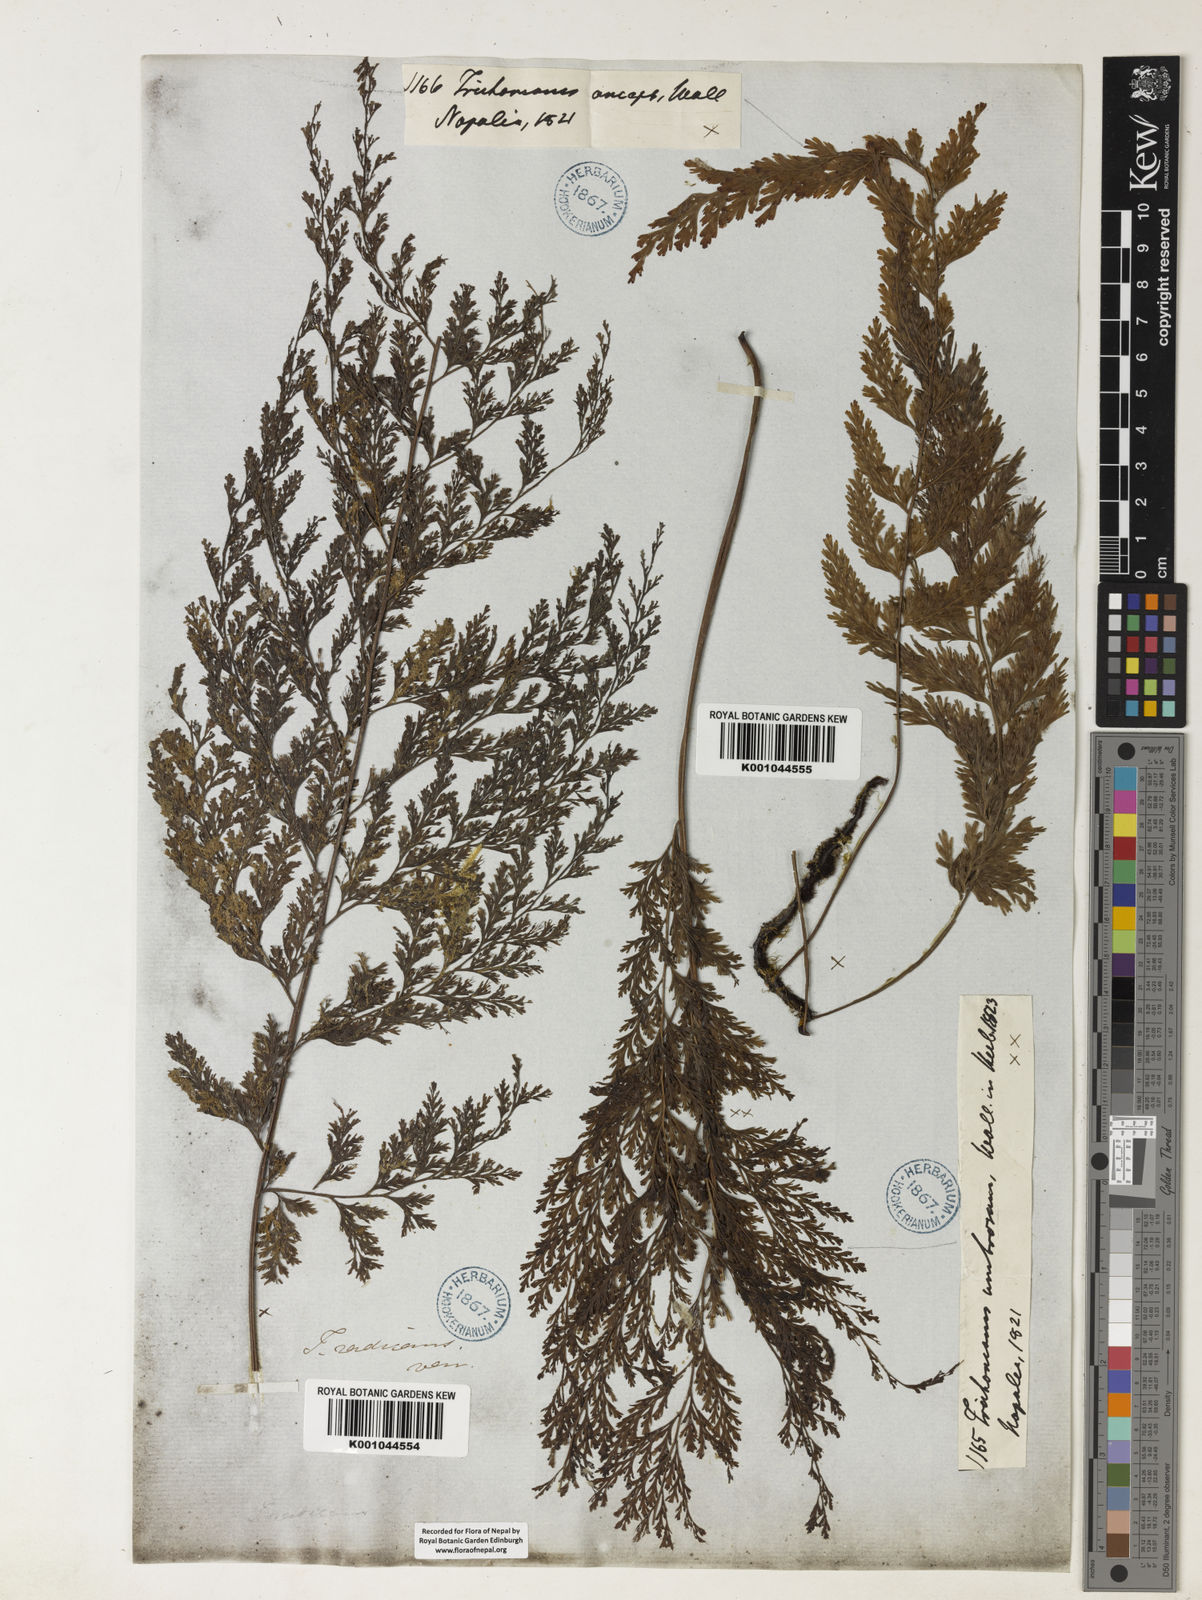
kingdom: Plantae
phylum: Tracheophyta
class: Polypodiopsida
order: Hymenophyllales
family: Hymenophyllaceae
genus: Vandenboschia
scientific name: Vandenboschia radicans
